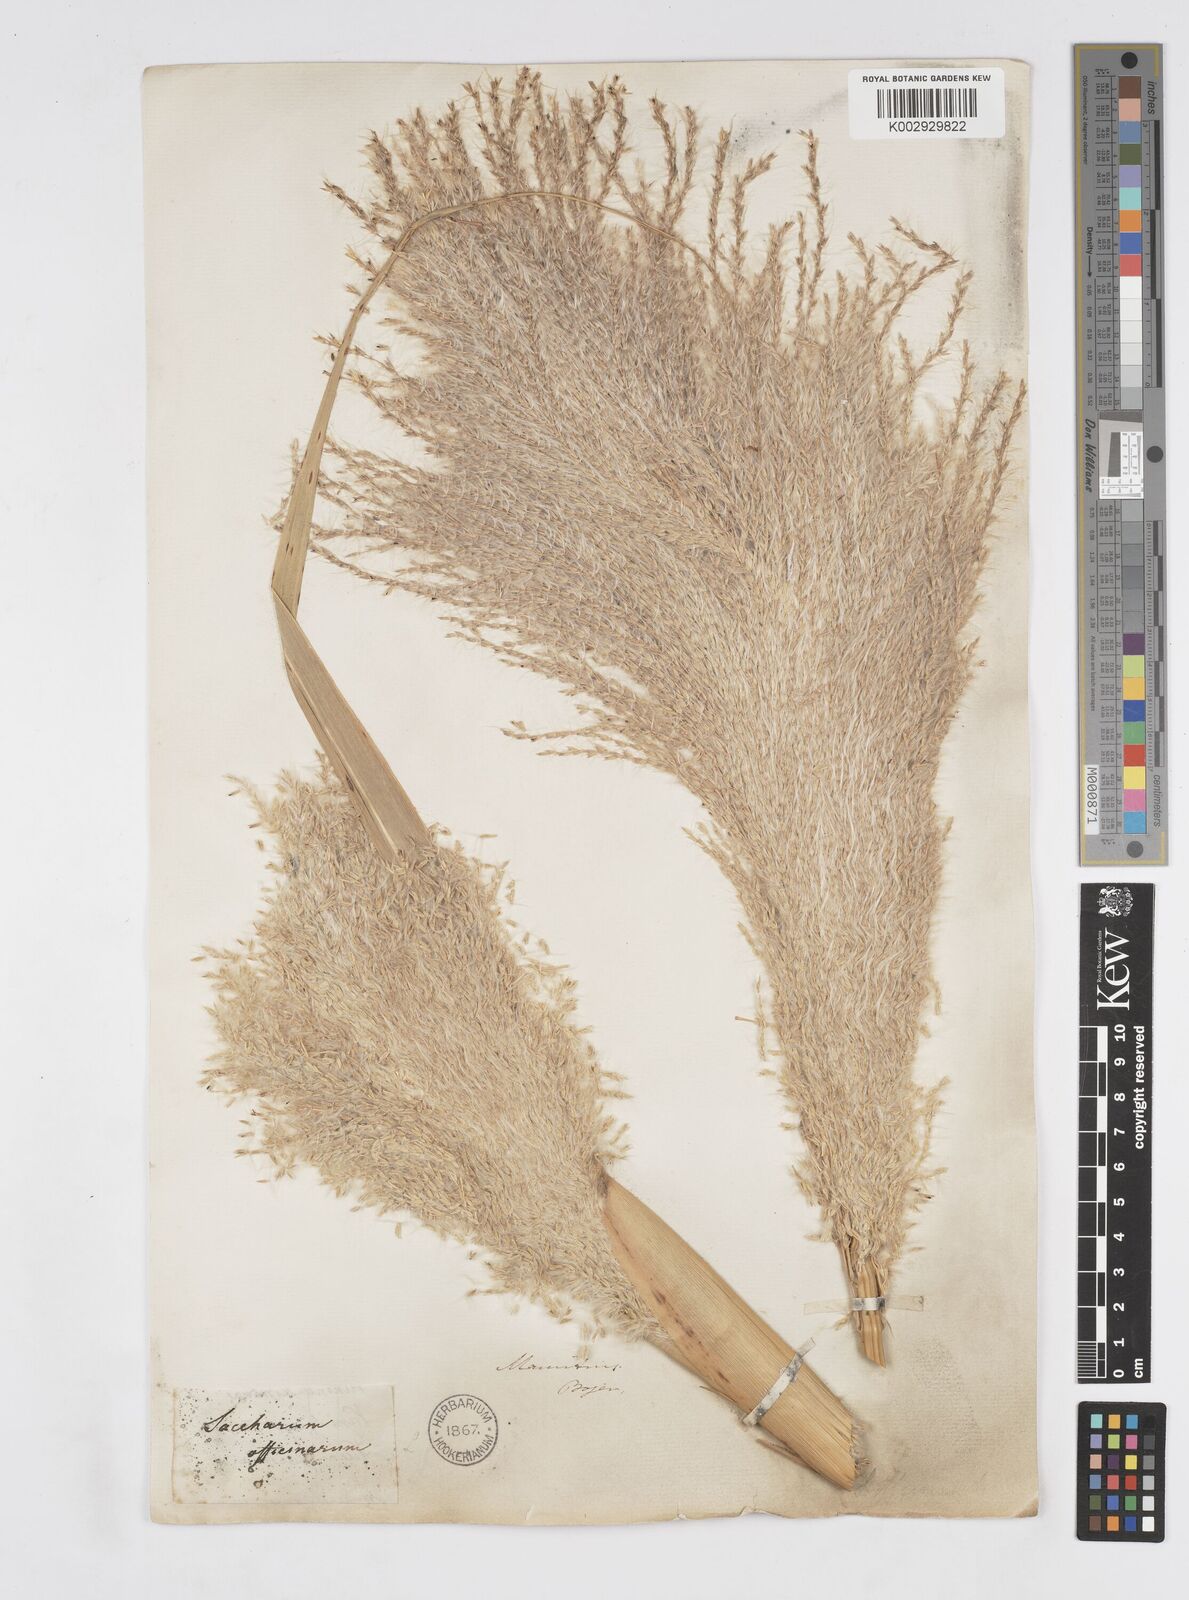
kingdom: Plantae
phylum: Tracheophyta
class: Liliopsida
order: Poales
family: Poaceae
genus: Saccharum
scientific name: Saccharum
